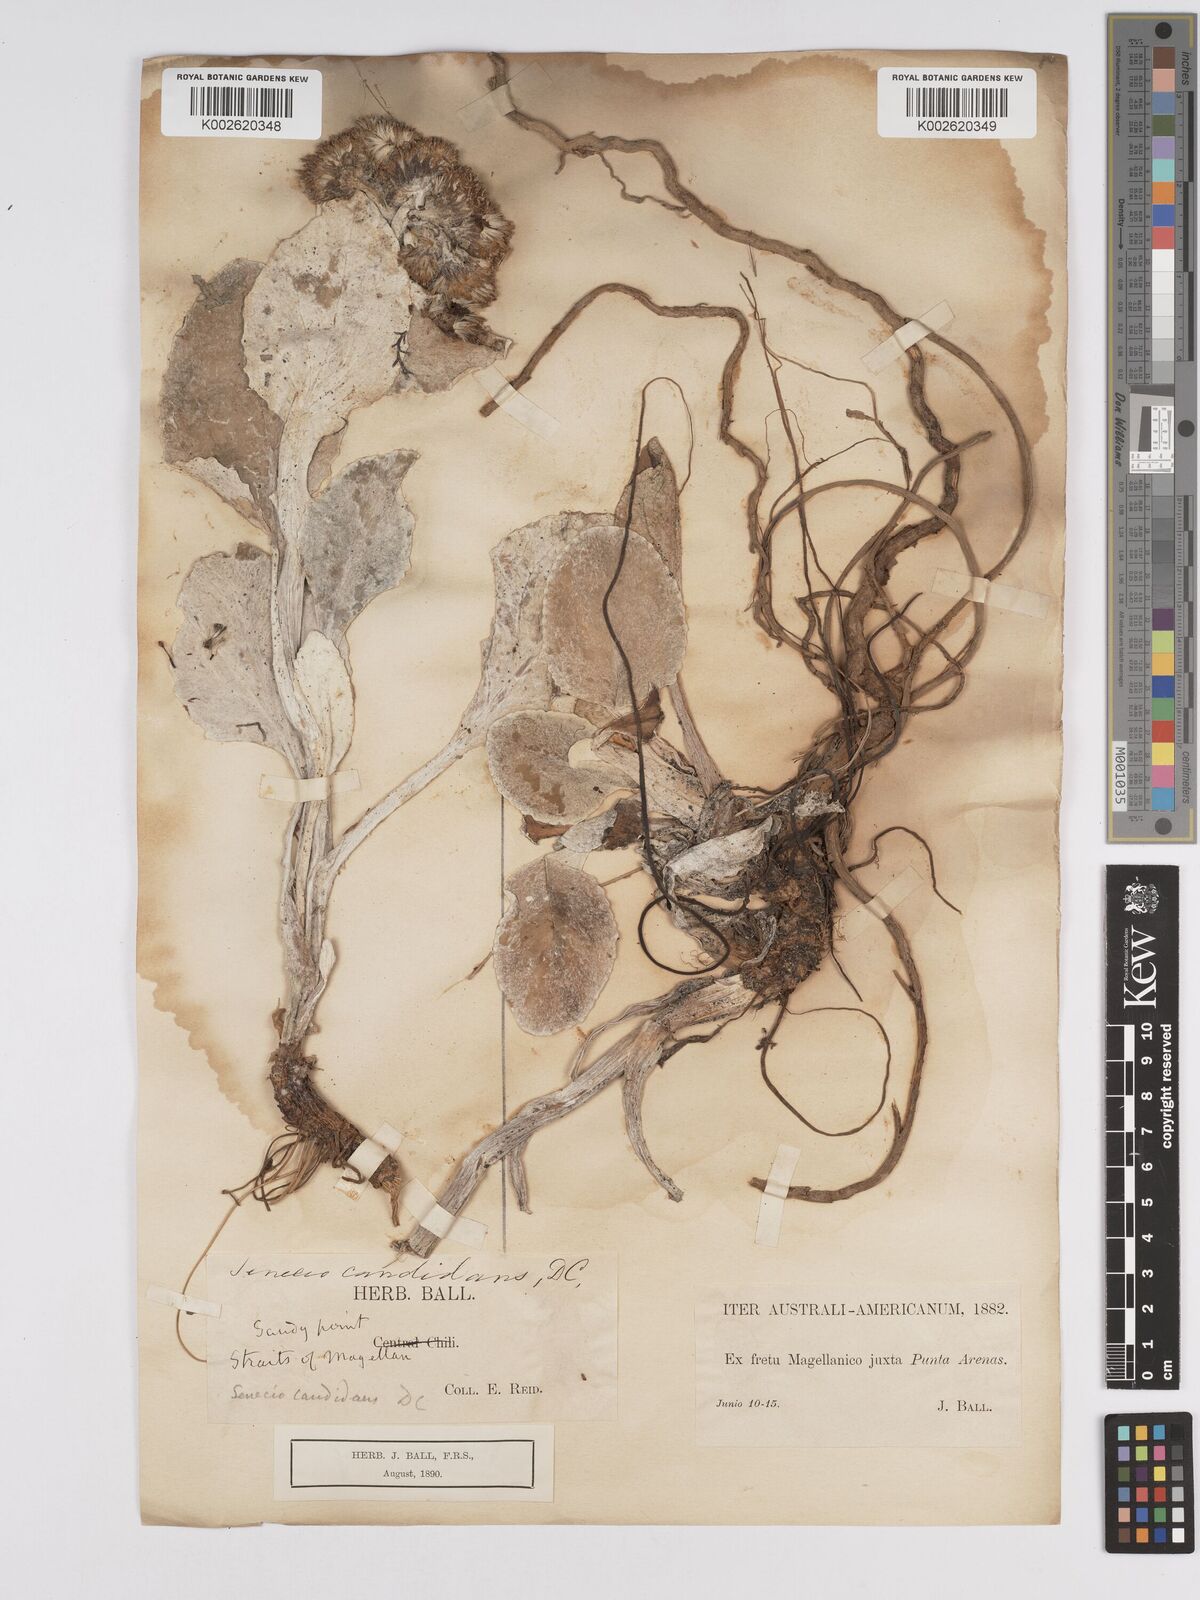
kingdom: Plantae
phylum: Tracheophyta
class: Magnoliopsida
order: Asterales
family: Asteraceae
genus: Senecio
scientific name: Senecio candidans
